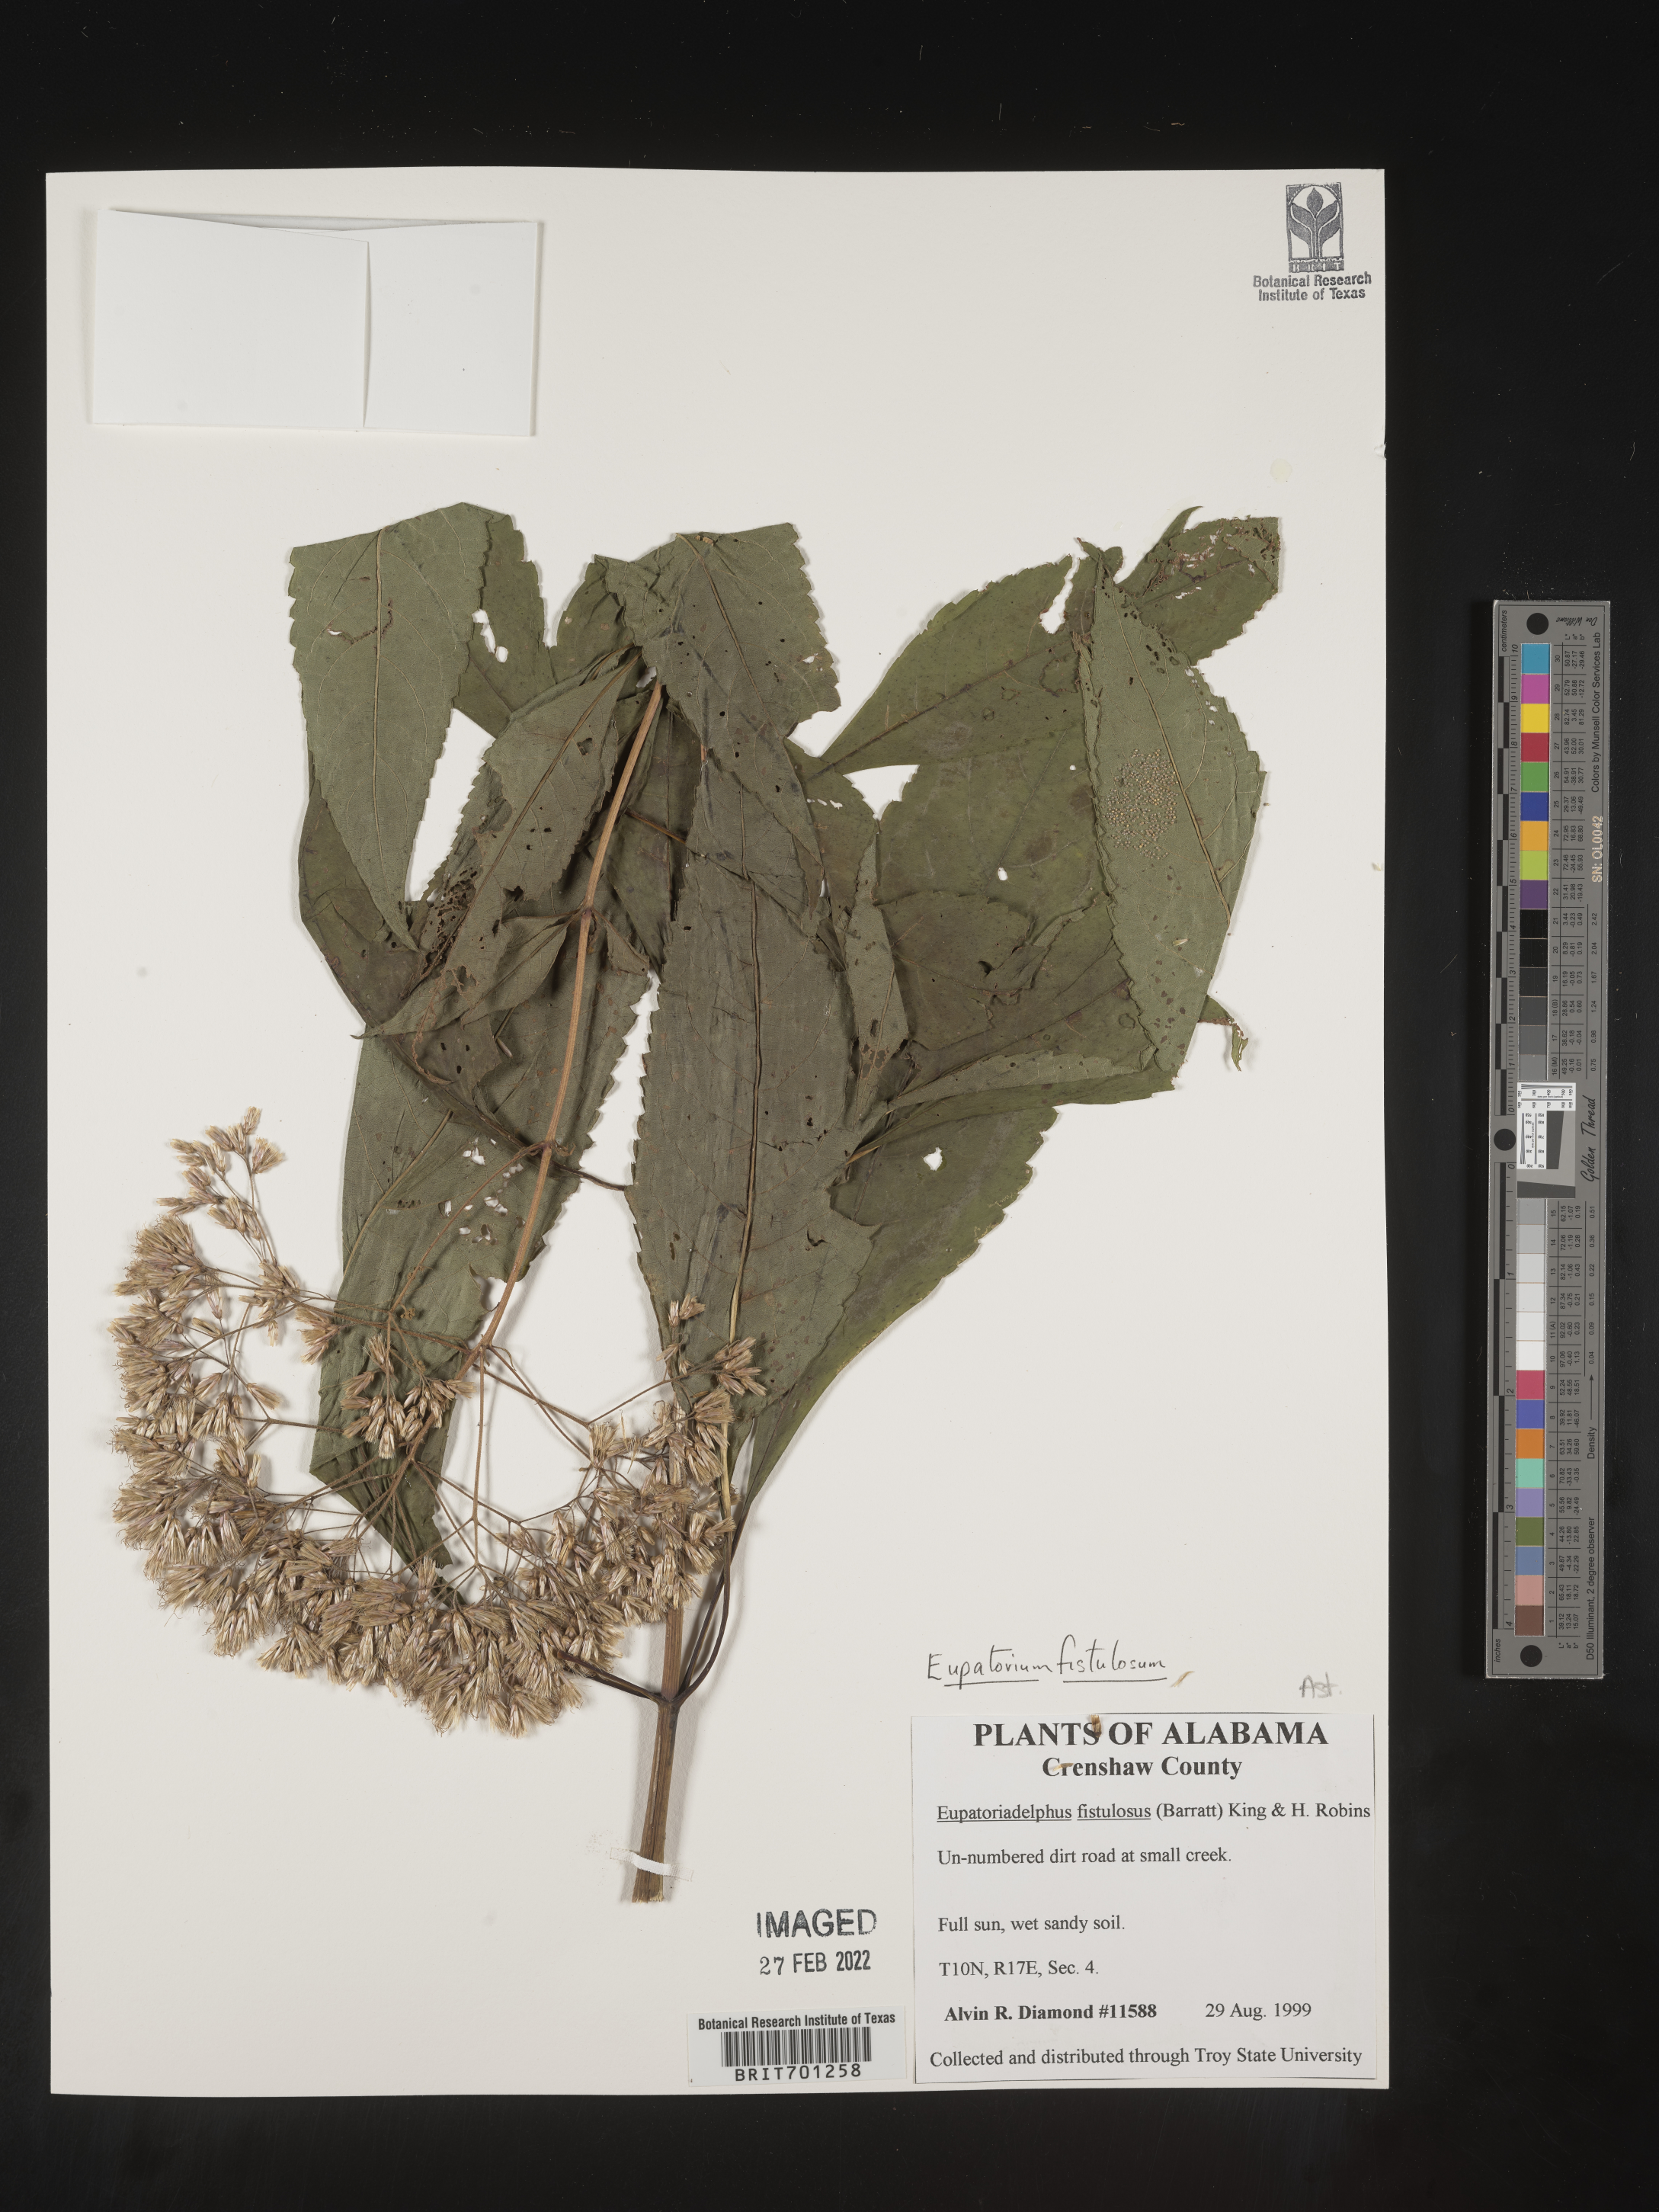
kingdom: Plantae
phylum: Tracheophyta
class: Magnoliopsida
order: Asterales
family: Asteraceae
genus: Eutrochium
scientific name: Eutrochium fistulosum
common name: Trumpetweed
